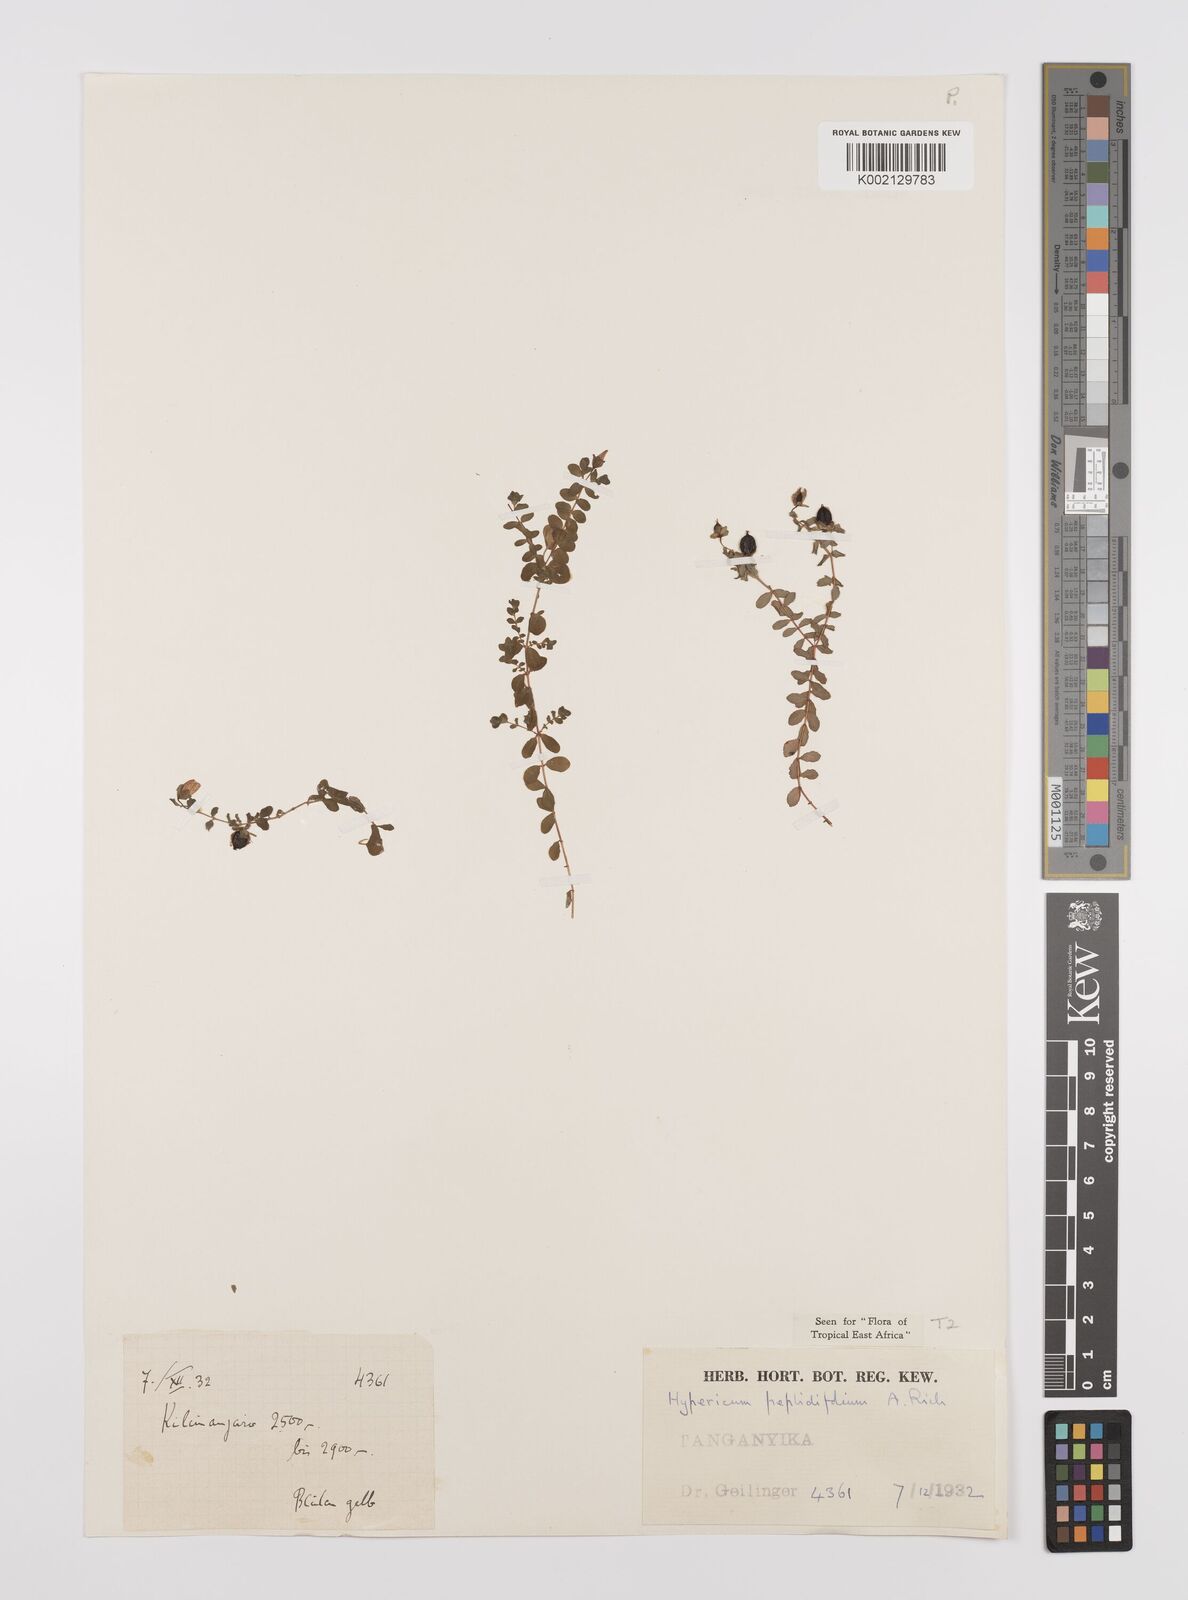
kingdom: Plantae
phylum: Tracheophyta
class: Magnoliopsida
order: Malpighiales
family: Hypericaceae
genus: Hypericum
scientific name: Hypericum peplidifolium
